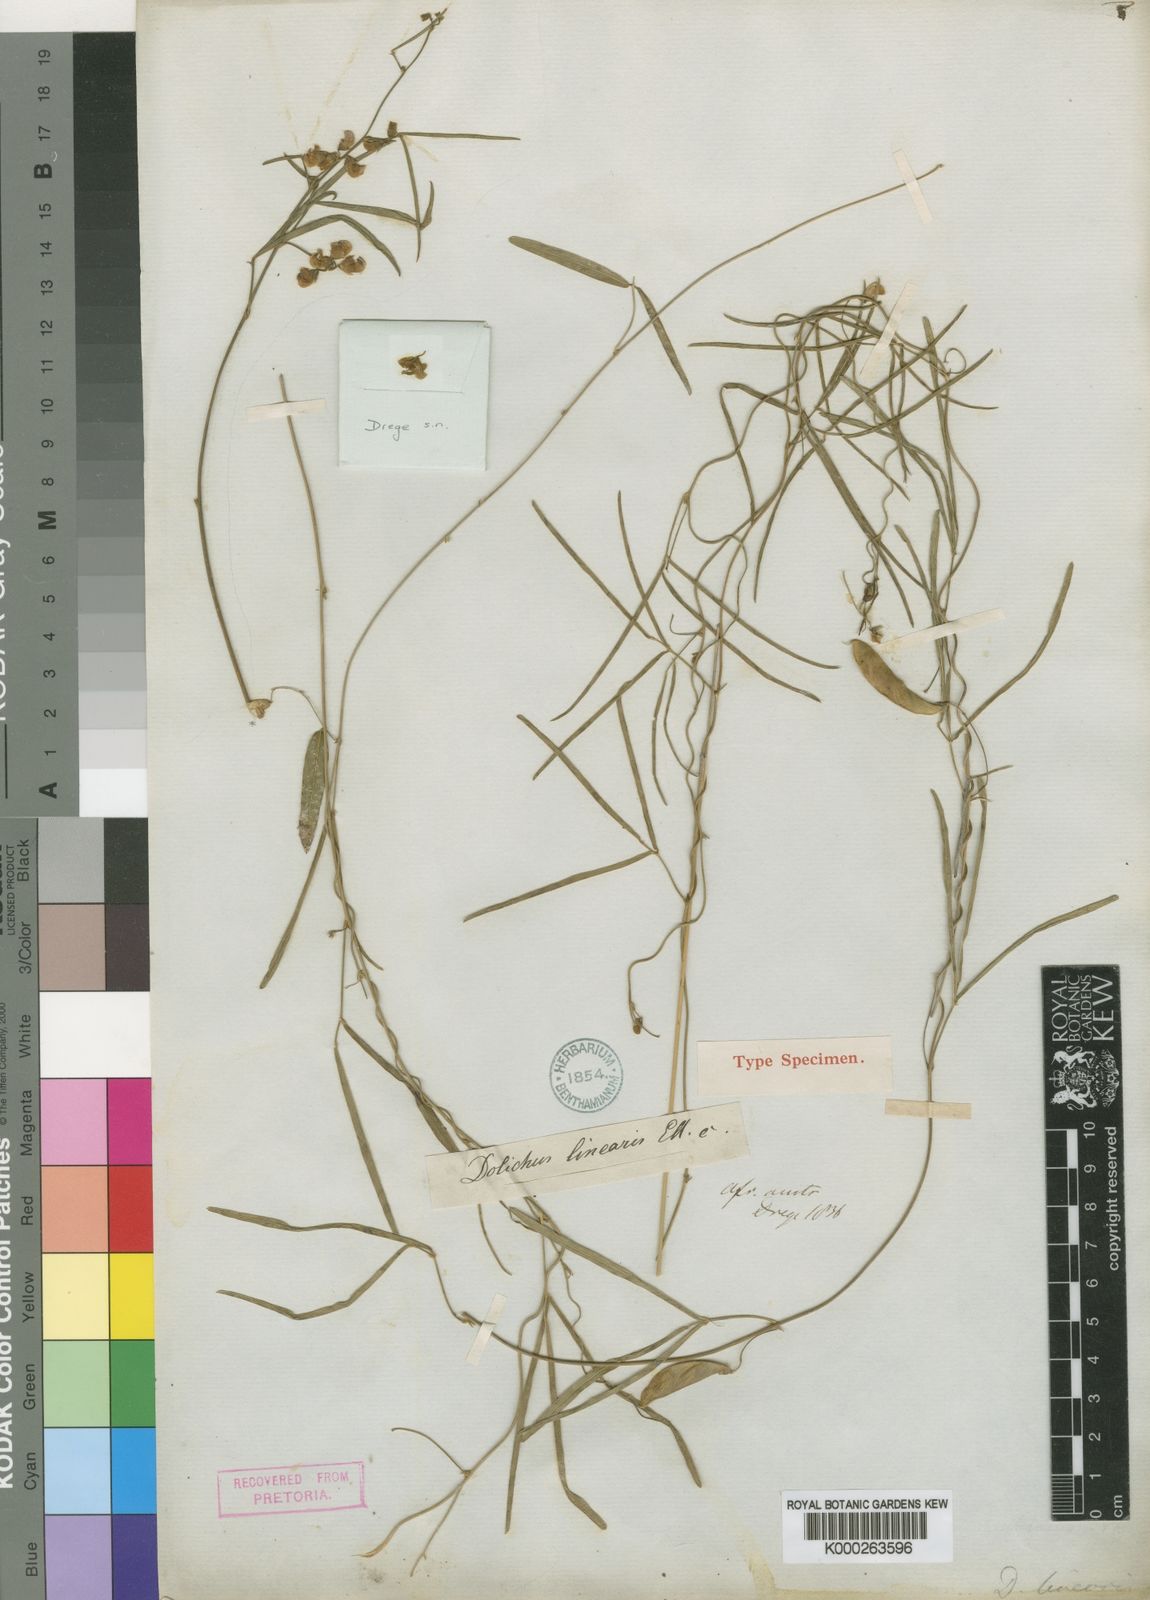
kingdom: Plantae
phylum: Tracheophyta
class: Magnoliopsida
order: Fabales
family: Fabaceae
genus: Dolichos
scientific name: Dolichos linearis
